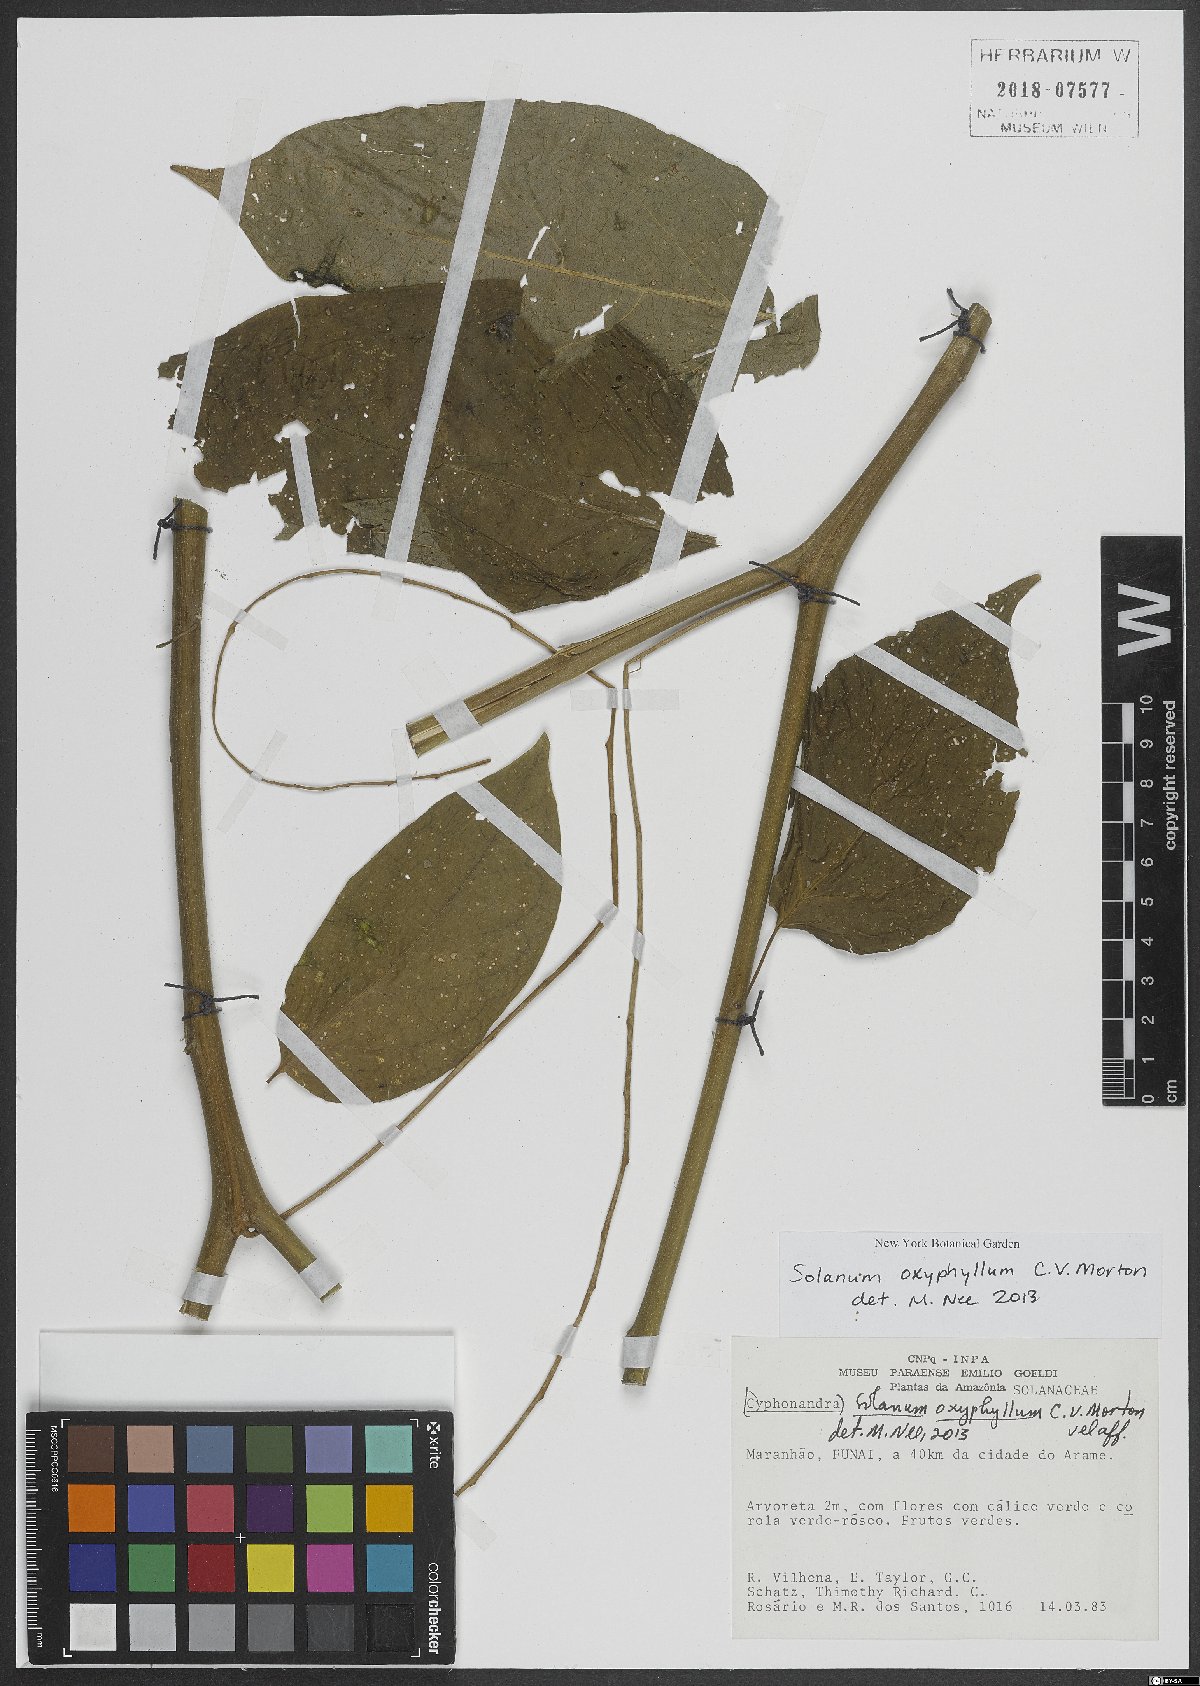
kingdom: Plantae
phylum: Tracheophyta
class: Magnoliopsida
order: Solanales
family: Solanaceae
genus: Solanum
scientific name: Solanum
